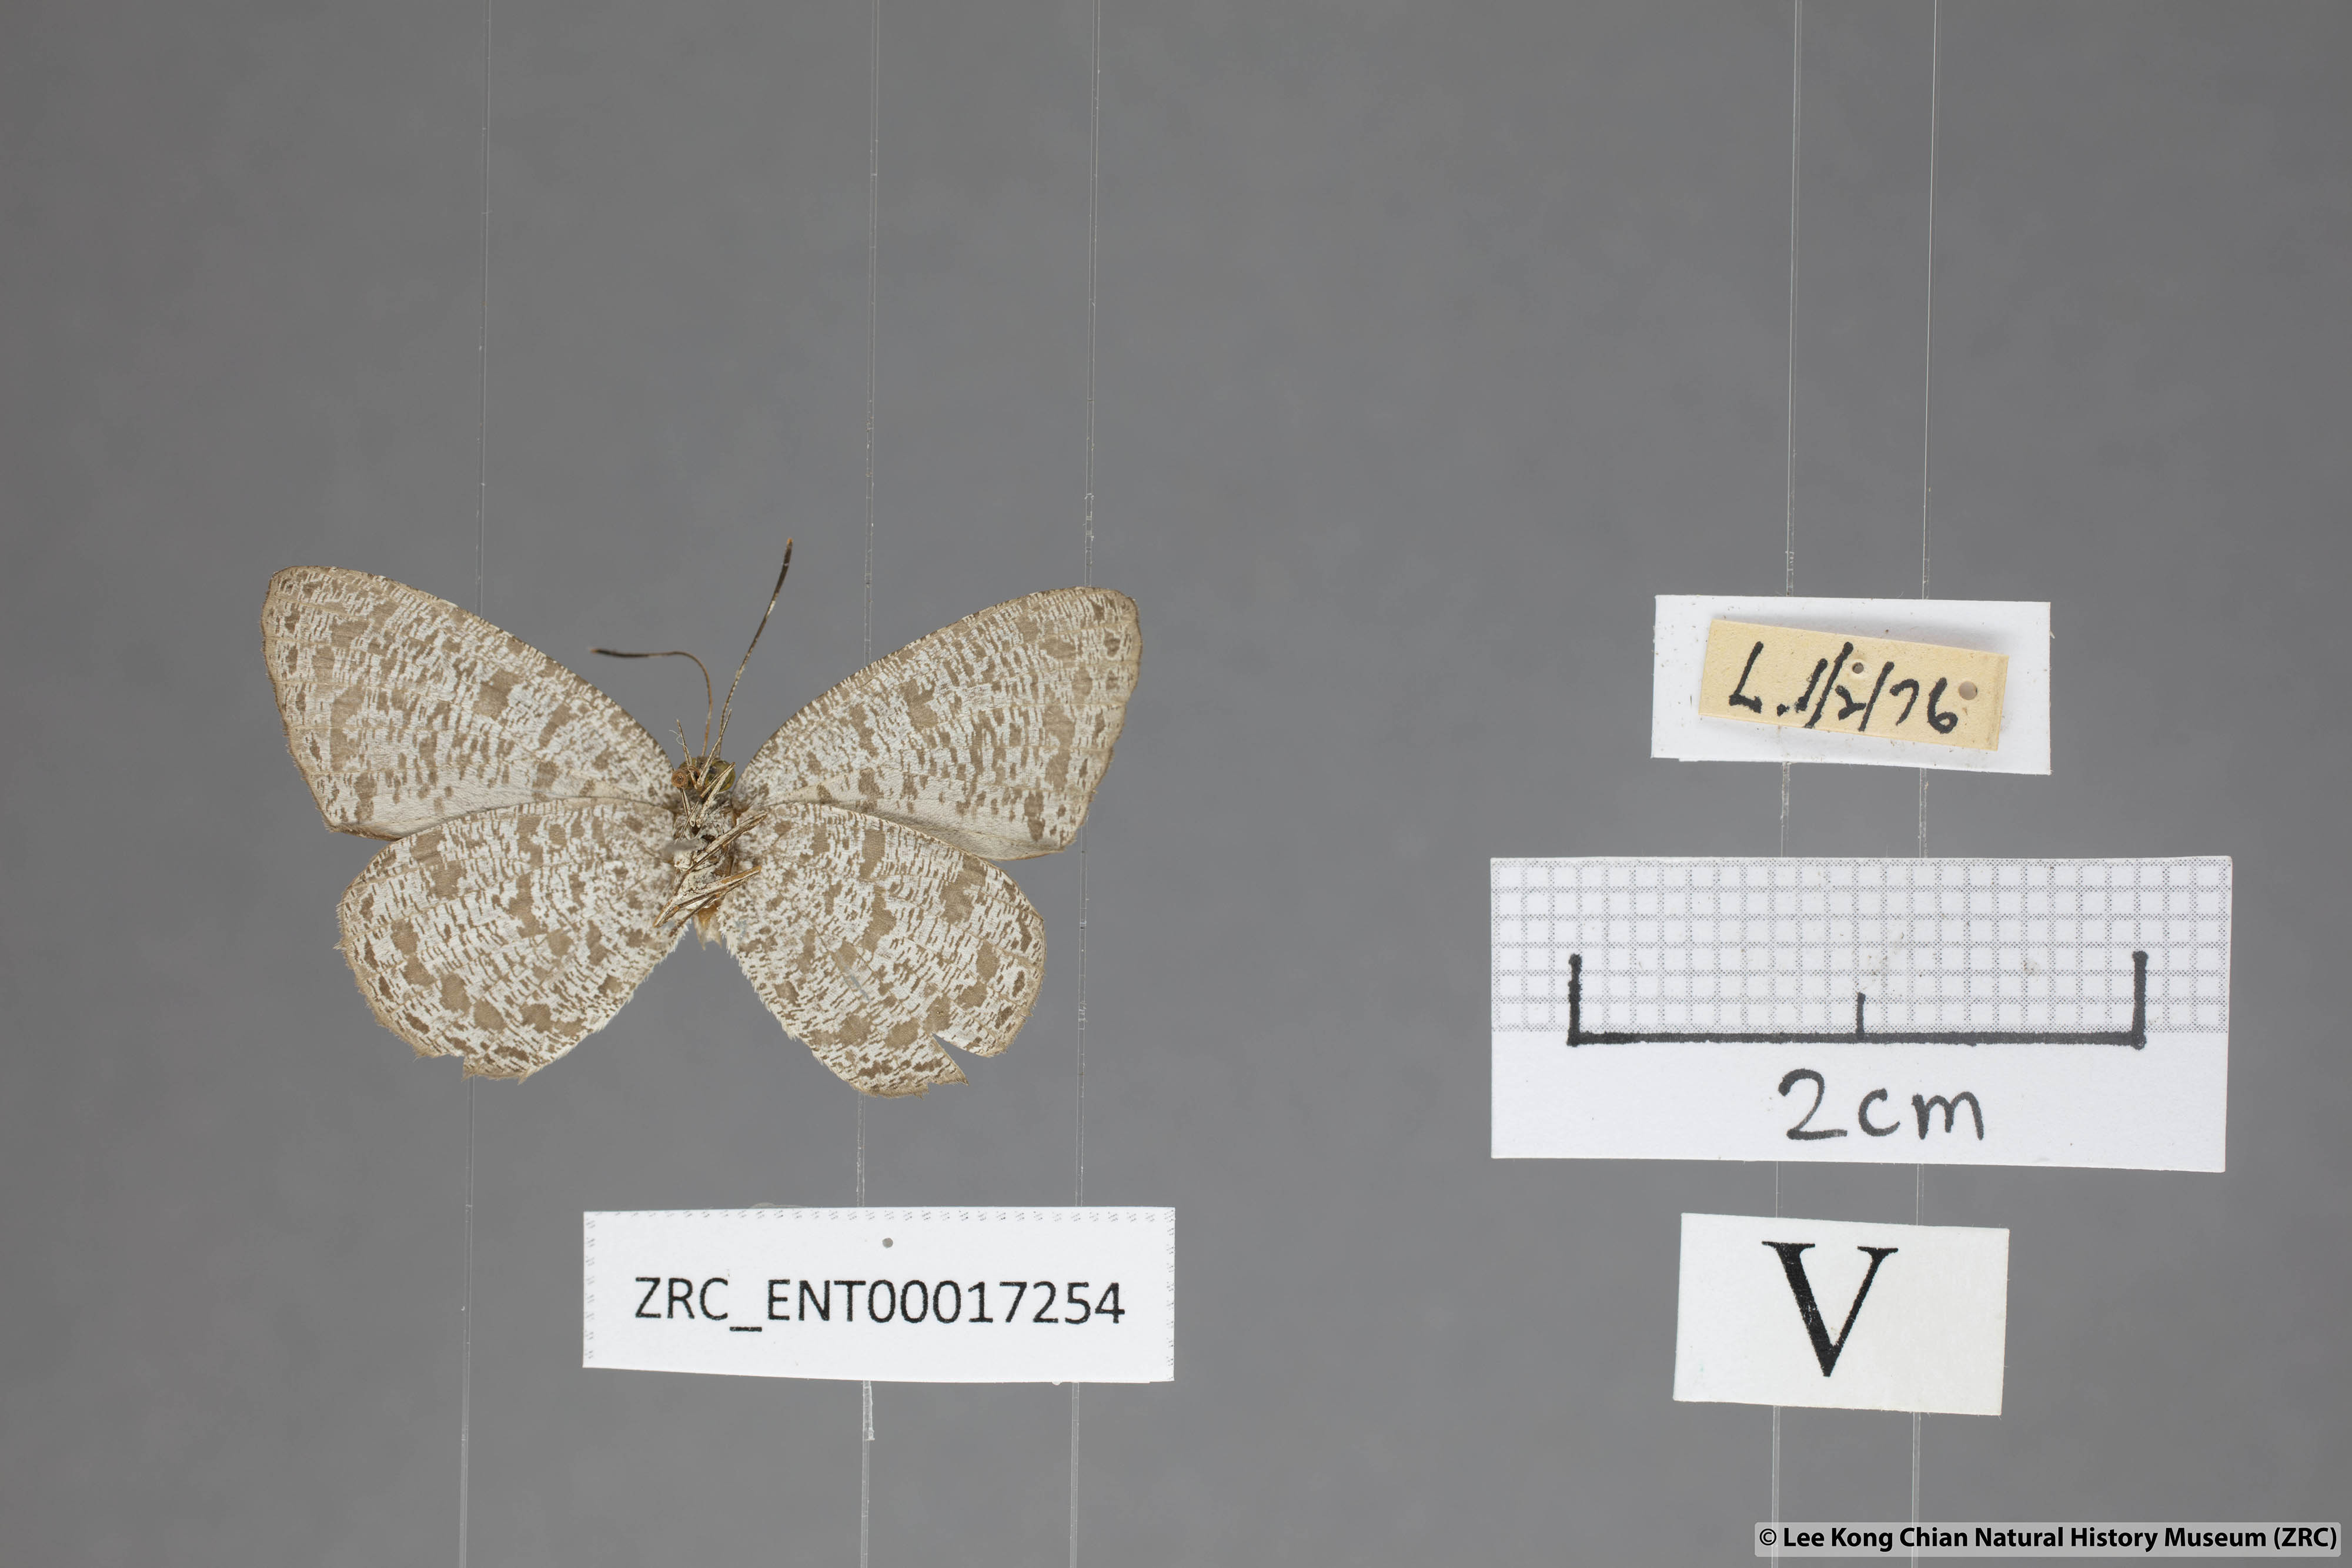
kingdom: Animalia
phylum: Arthropoda
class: Insecta
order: Lepidoptera
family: Lycaenidae
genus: Allotinus
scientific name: Allotinus horsfieldi
